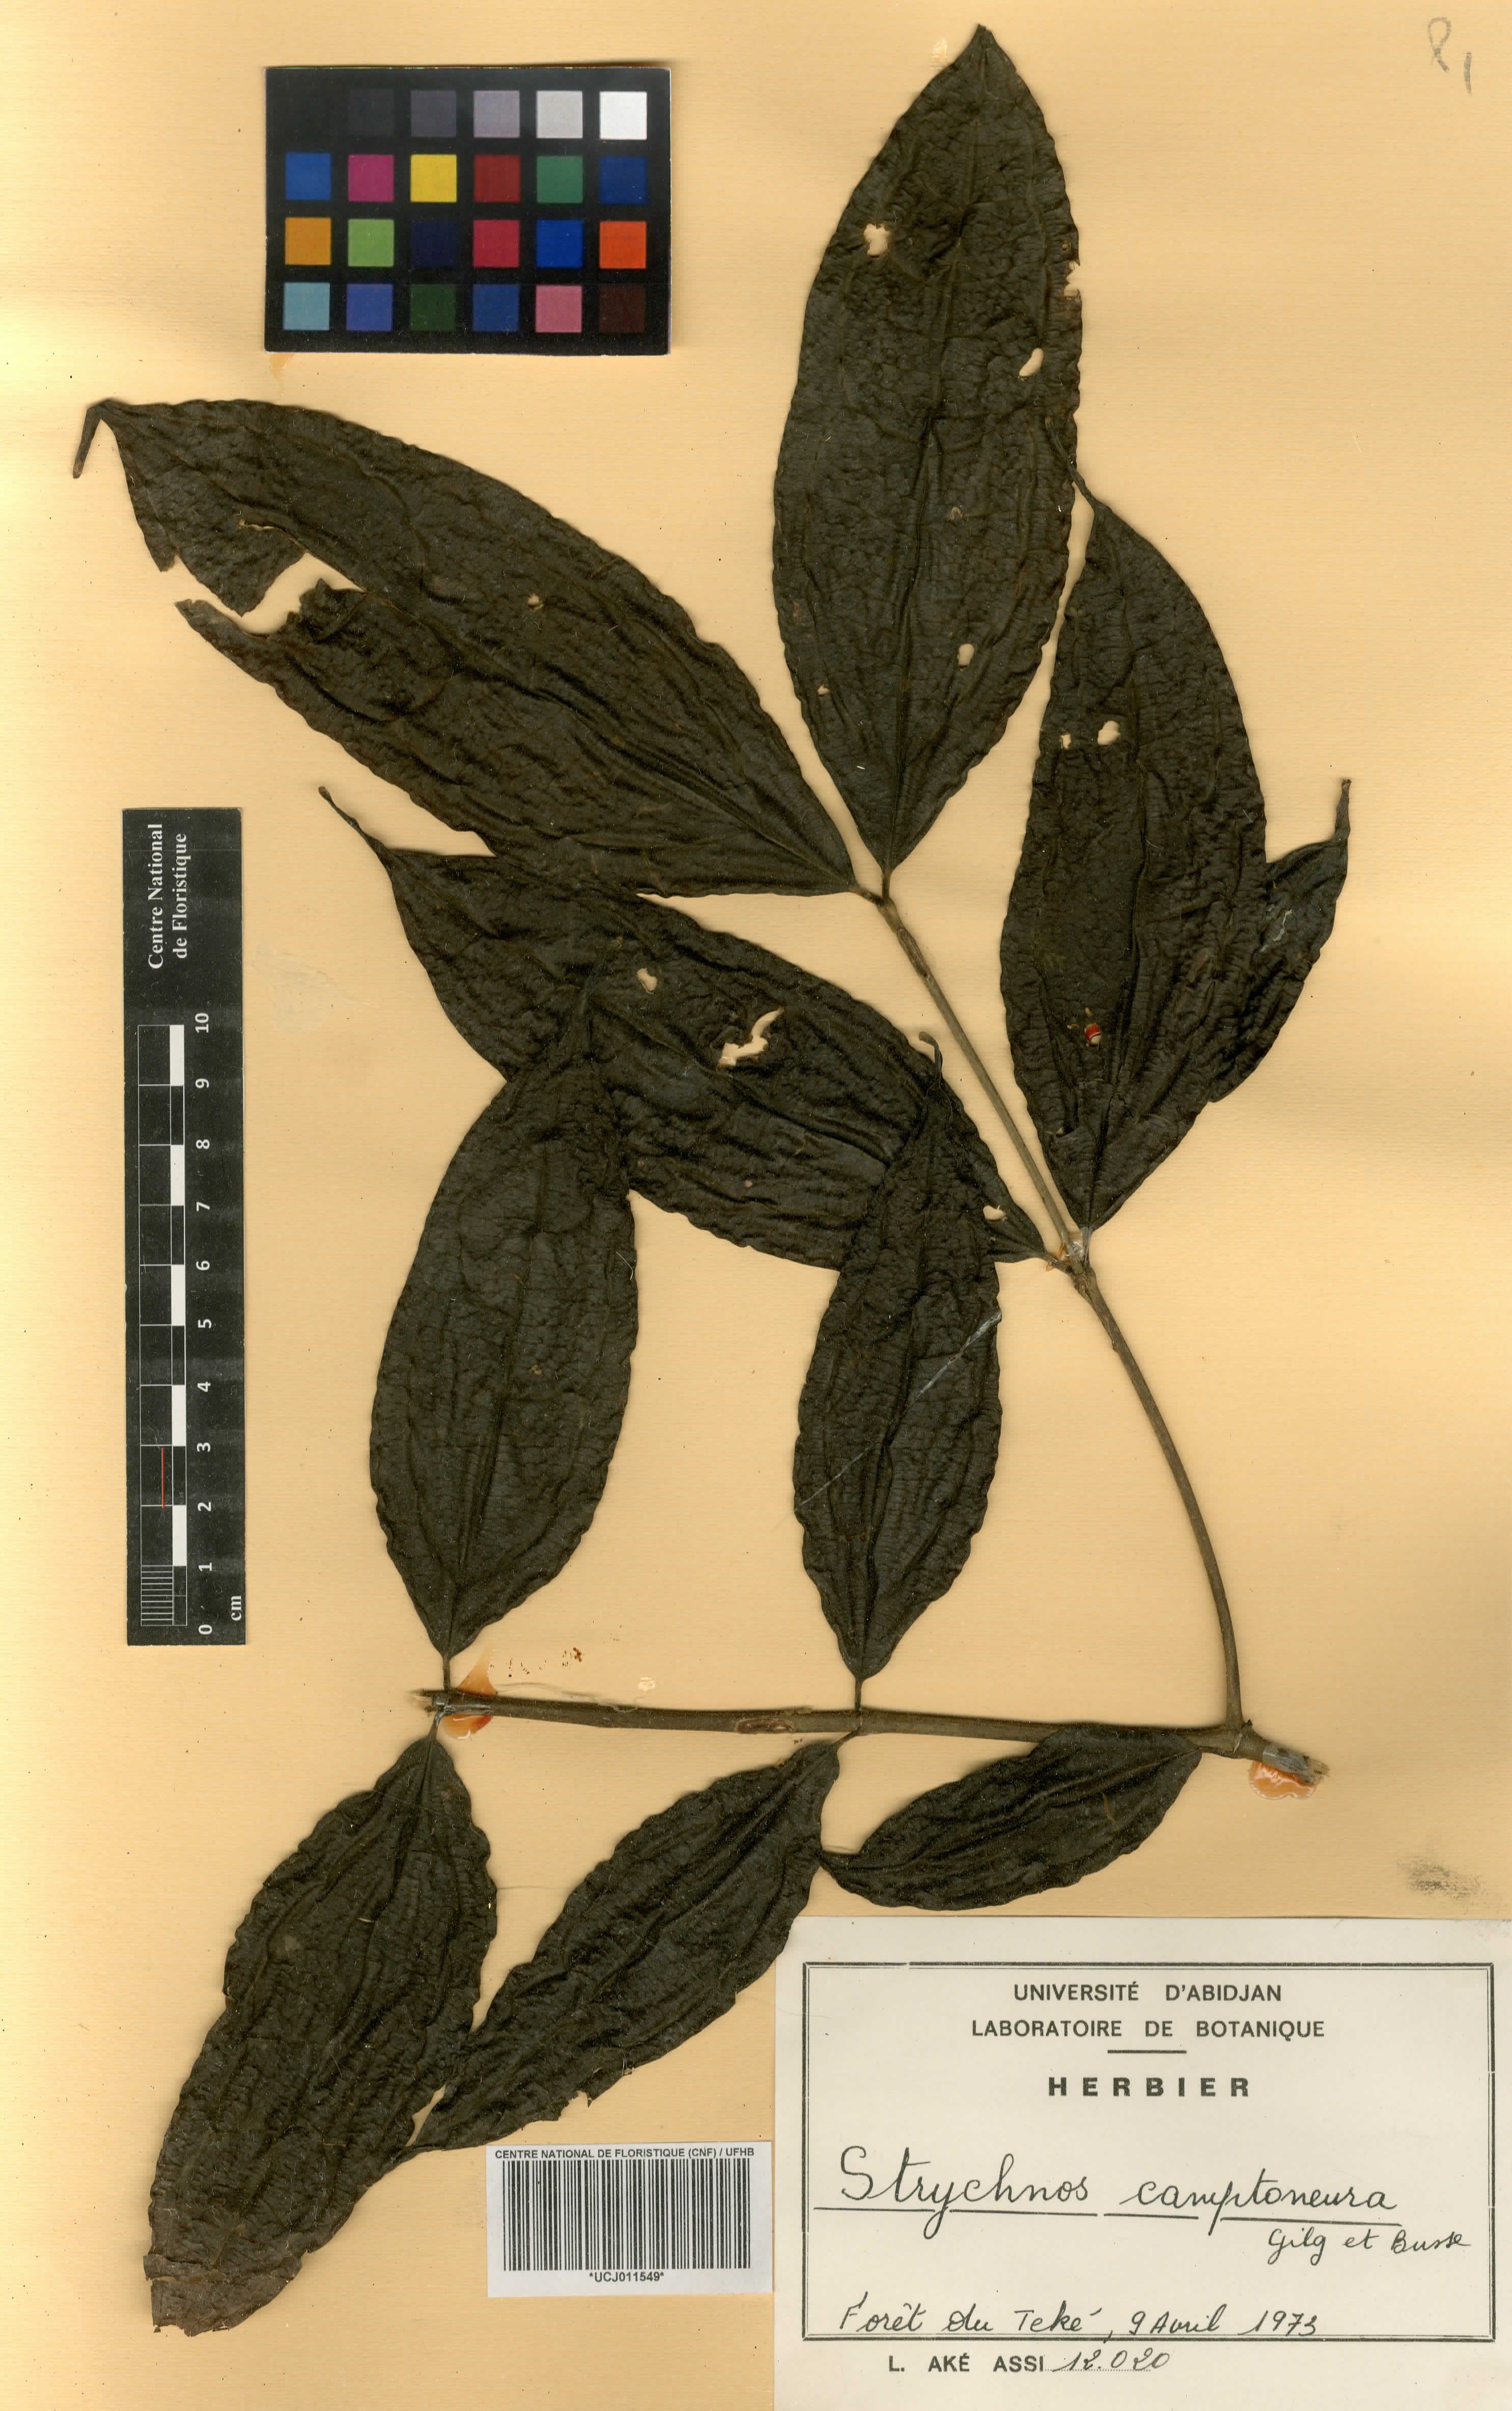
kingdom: Plantae
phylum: Tracheophyta
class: Magnoliopsida
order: Gentianales
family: Loganiaceae
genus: Strychnos
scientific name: Strychnos camptoneura
